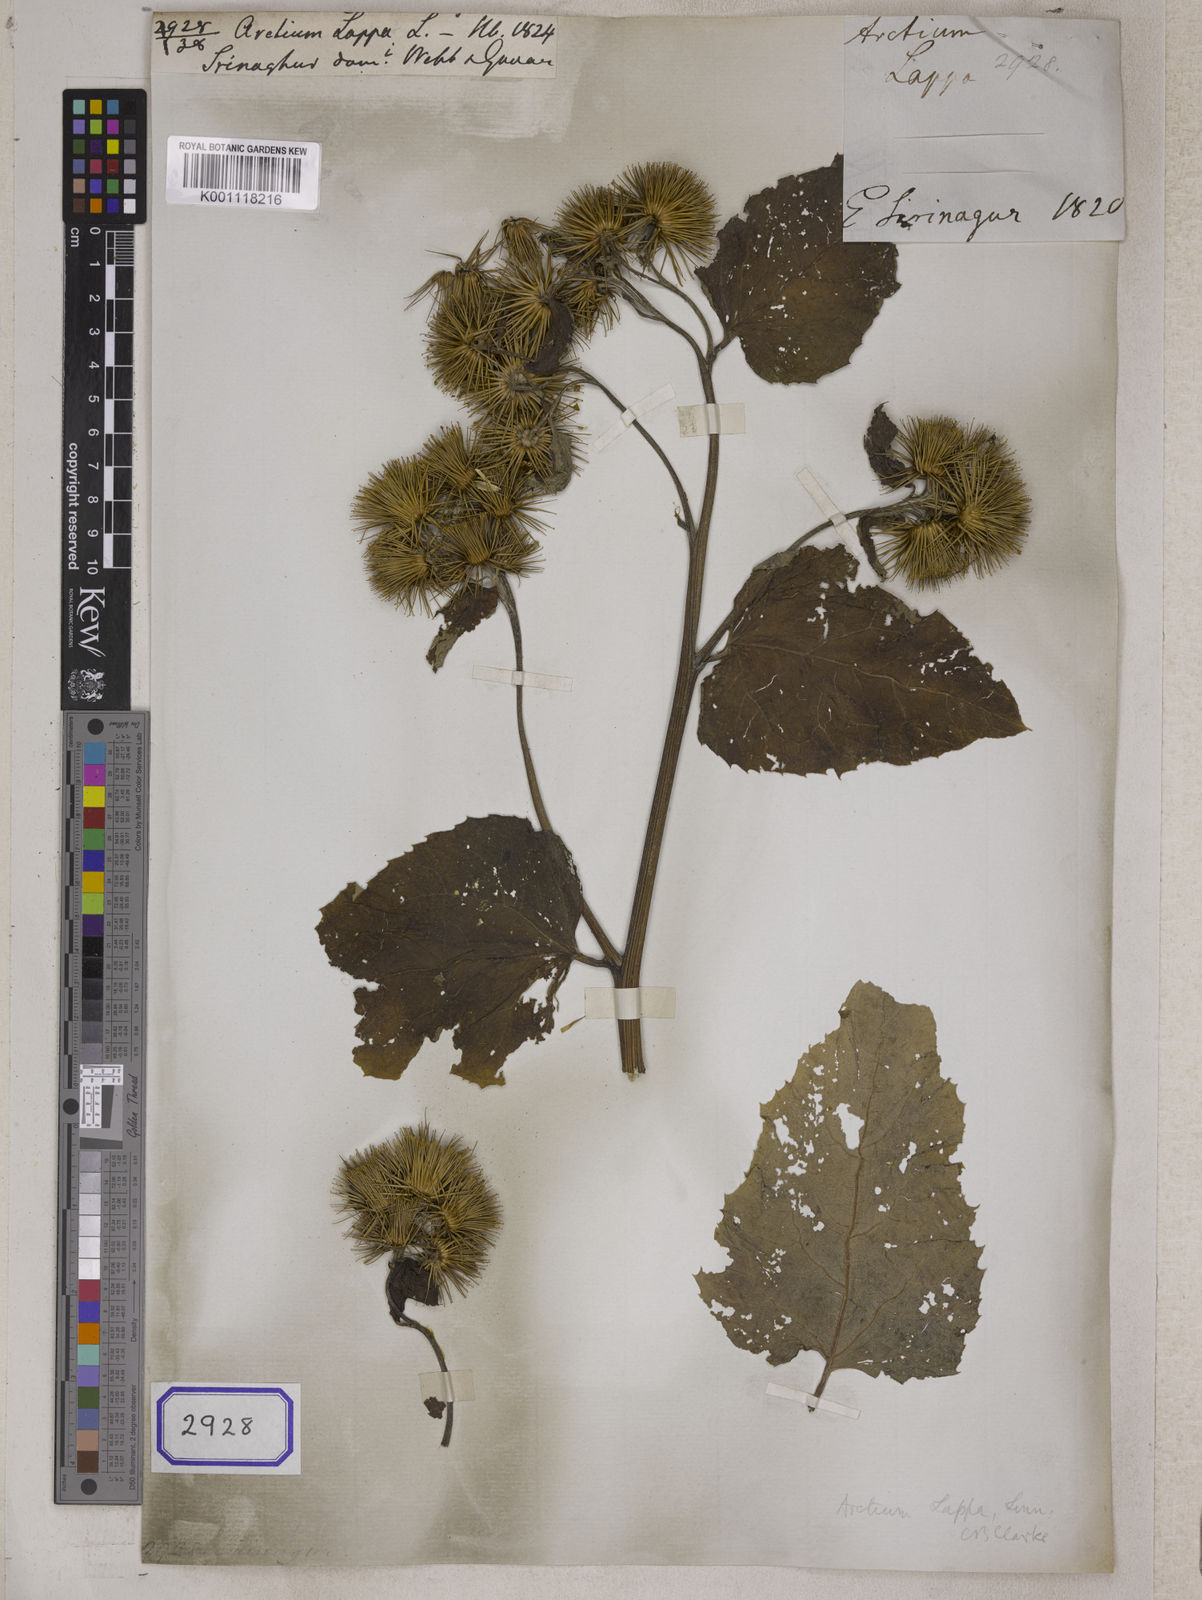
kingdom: Plantae
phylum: Tracheophyta
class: Magnoliopsida
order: Asterales
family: Asteraceae
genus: Arctium
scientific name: Arctium lappa
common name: Greater burdock
